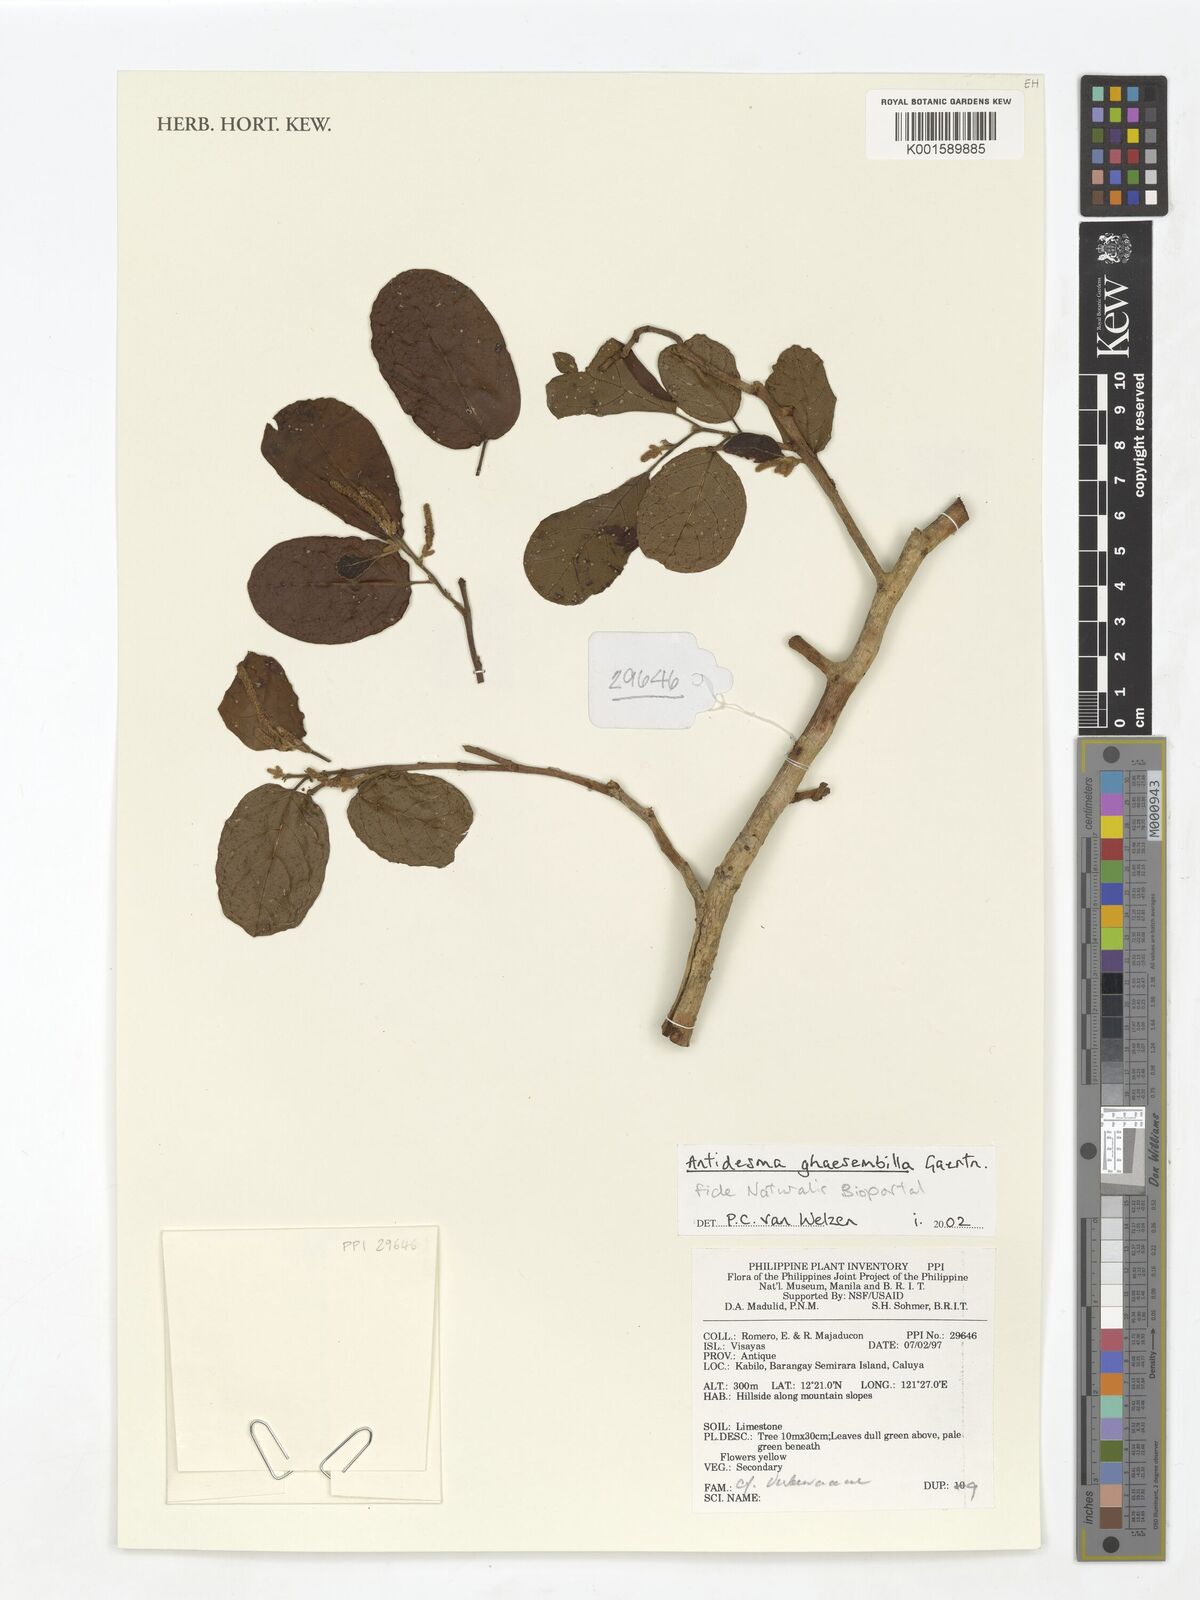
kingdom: Plantae
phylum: Tracheophyta
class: Magnoliopsida
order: Malpighiales
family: Phyllanthaceae
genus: Antidesma
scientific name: Antidesma ghaesembilla
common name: Black currant-tree
